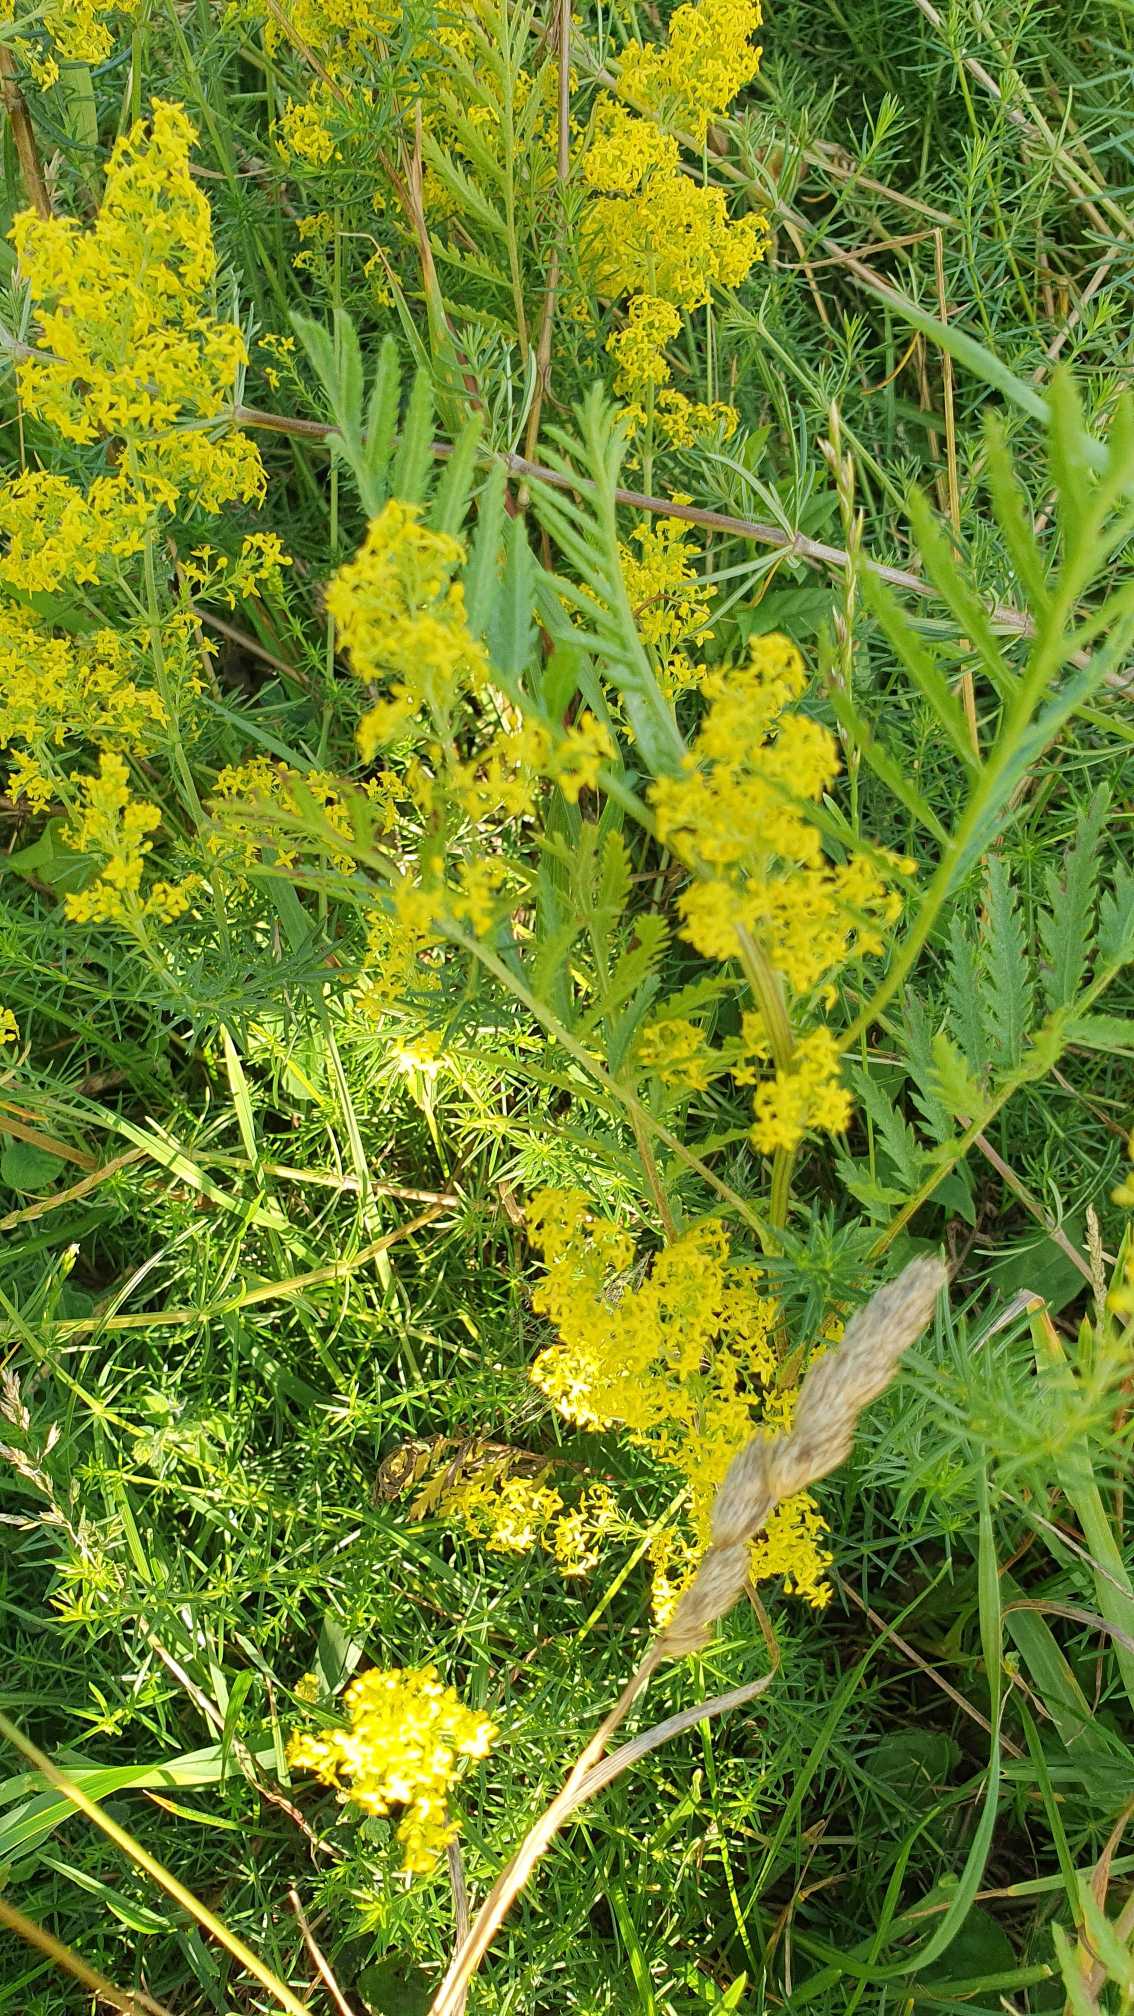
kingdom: Plantae
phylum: Tracheophyta
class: Magnoliopsida
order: Gentianales
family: Rubiaceae
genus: Galium
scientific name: Galium verum
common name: Gul snerre
